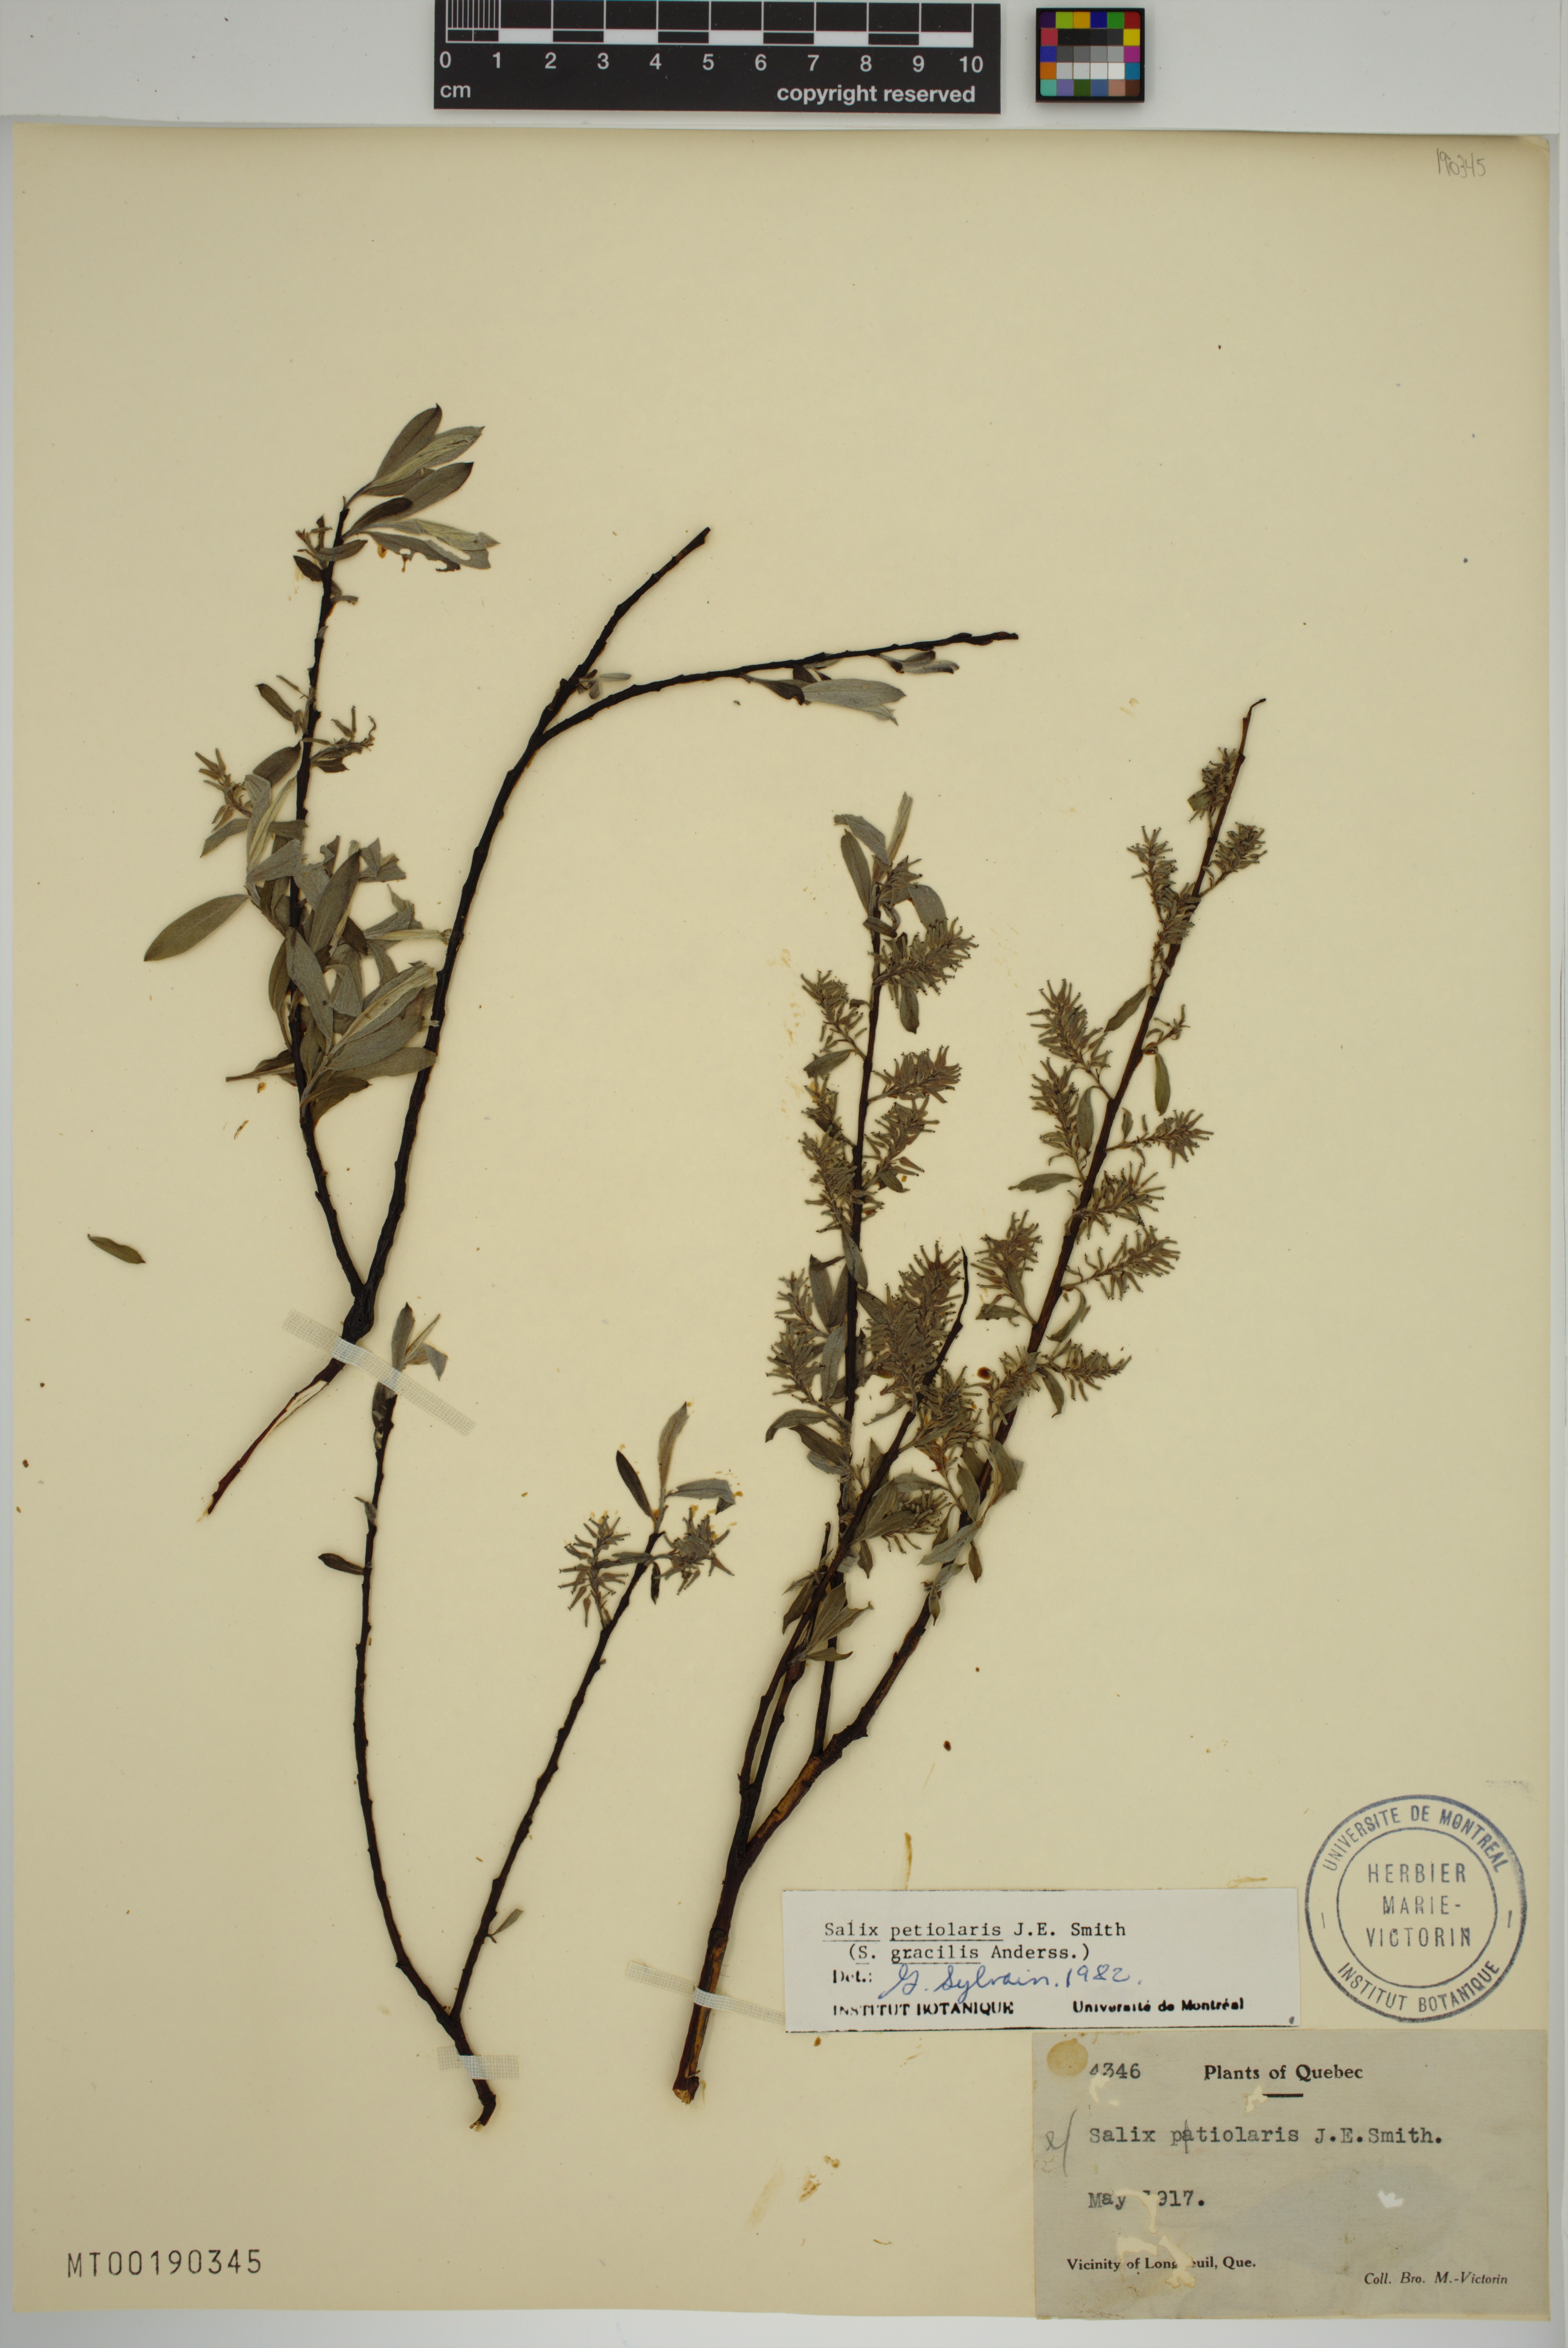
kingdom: Plantae
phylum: Tracheophyta
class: Magnoliopsida
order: Malpighiales
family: Salicaceae
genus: Salix
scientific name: Salix petiolaris
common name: Slender willow
